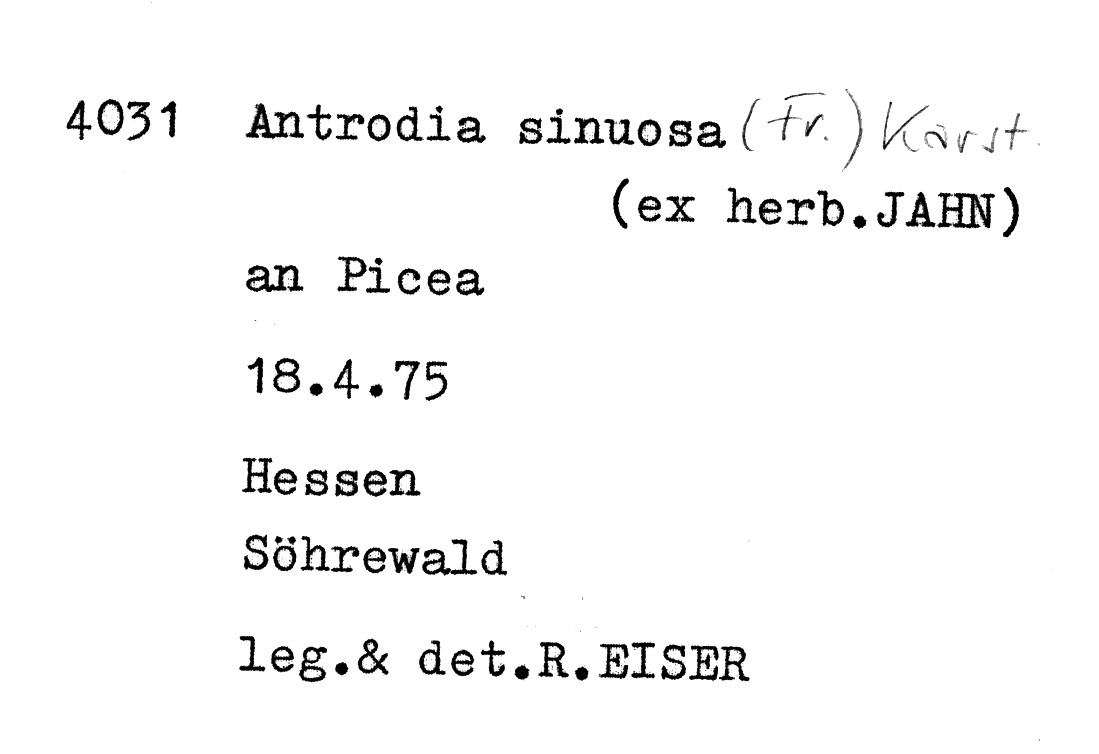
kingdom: Fungi
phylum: Basidiomycota
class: Agaricomycetes
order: Polyporales
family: Fomitopsidaceae
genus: Antrodia
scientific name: Antrodia sinuosa
